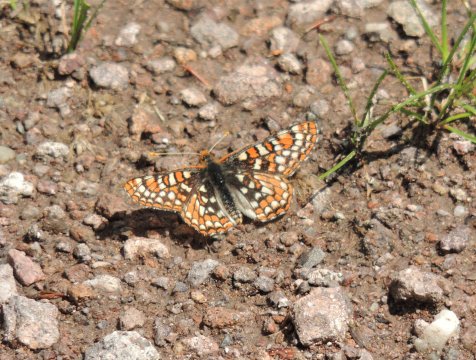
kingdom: Animalia
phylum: Arthropoda
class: Insecta
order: Lepidoptera
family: Nymphalidae
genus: Occidryas
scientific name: Occidryas editha
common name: Edith's Checkerspot
